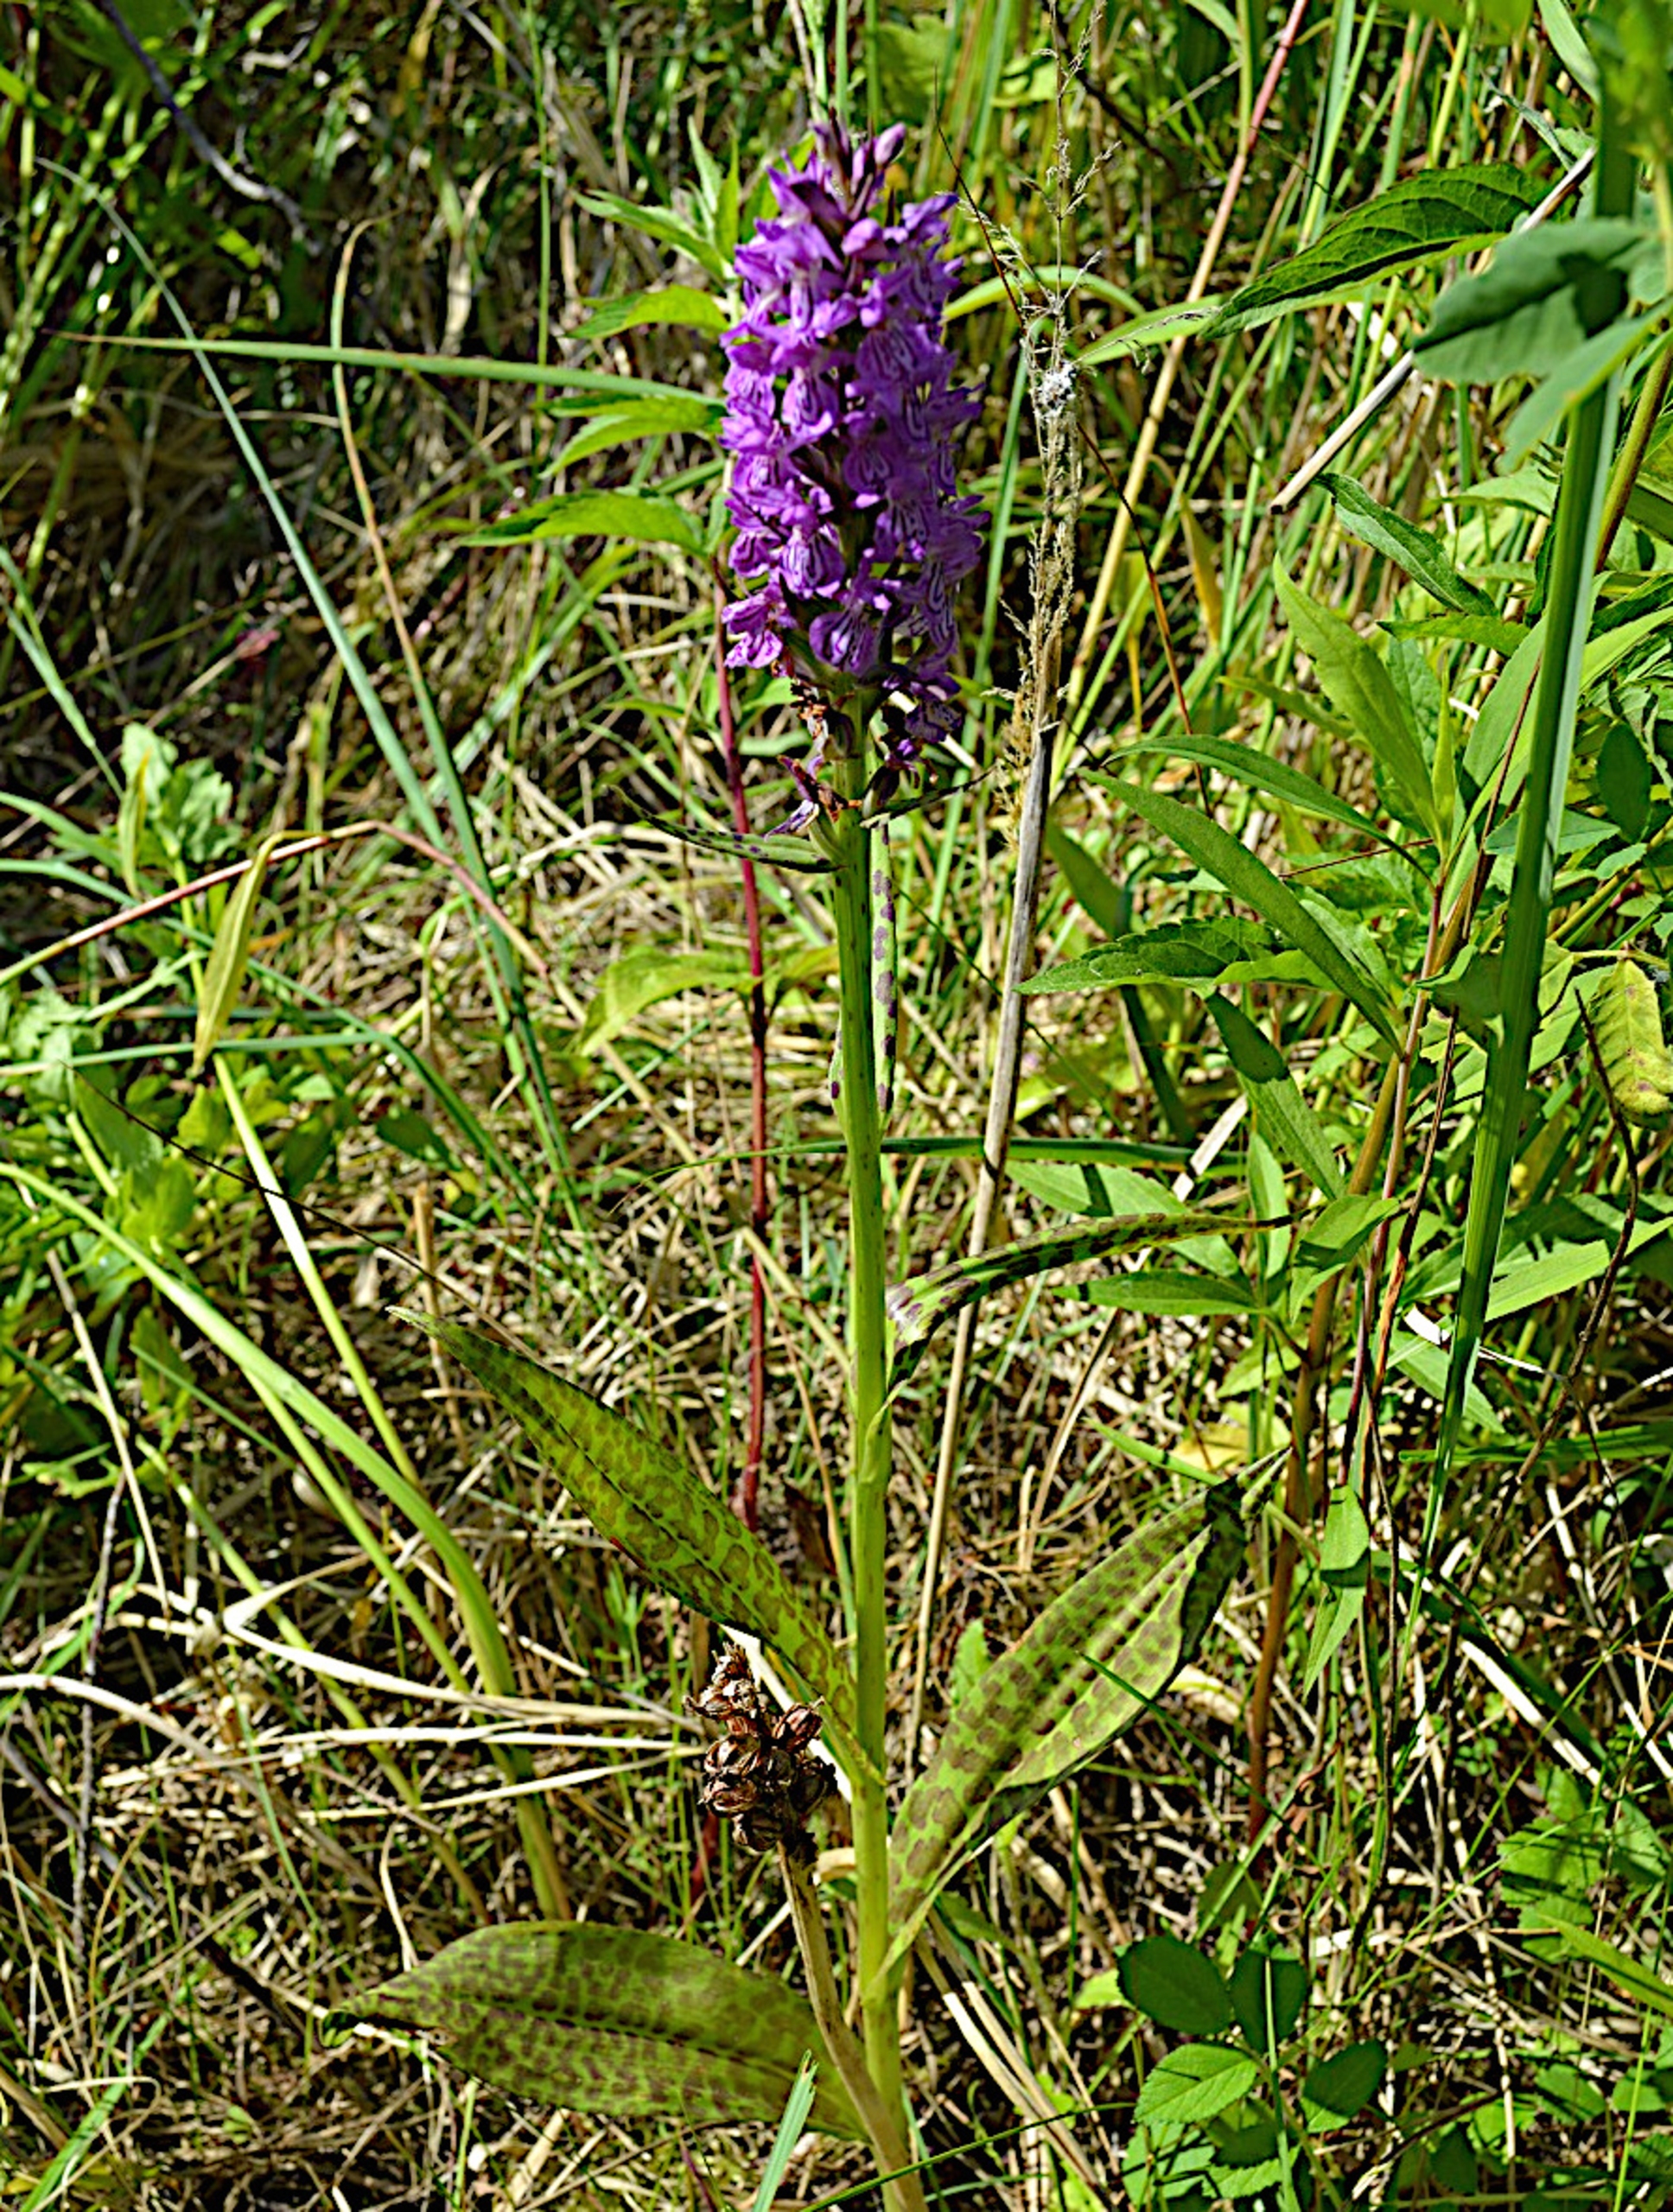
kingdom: Plantae
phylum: Tracheophyta
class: Liliopsida
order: Asparagales
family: Orchidaceae
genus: Dactylorhiza
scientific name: Dactylorhiza majalis
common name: Ringplettet gøgeurt
